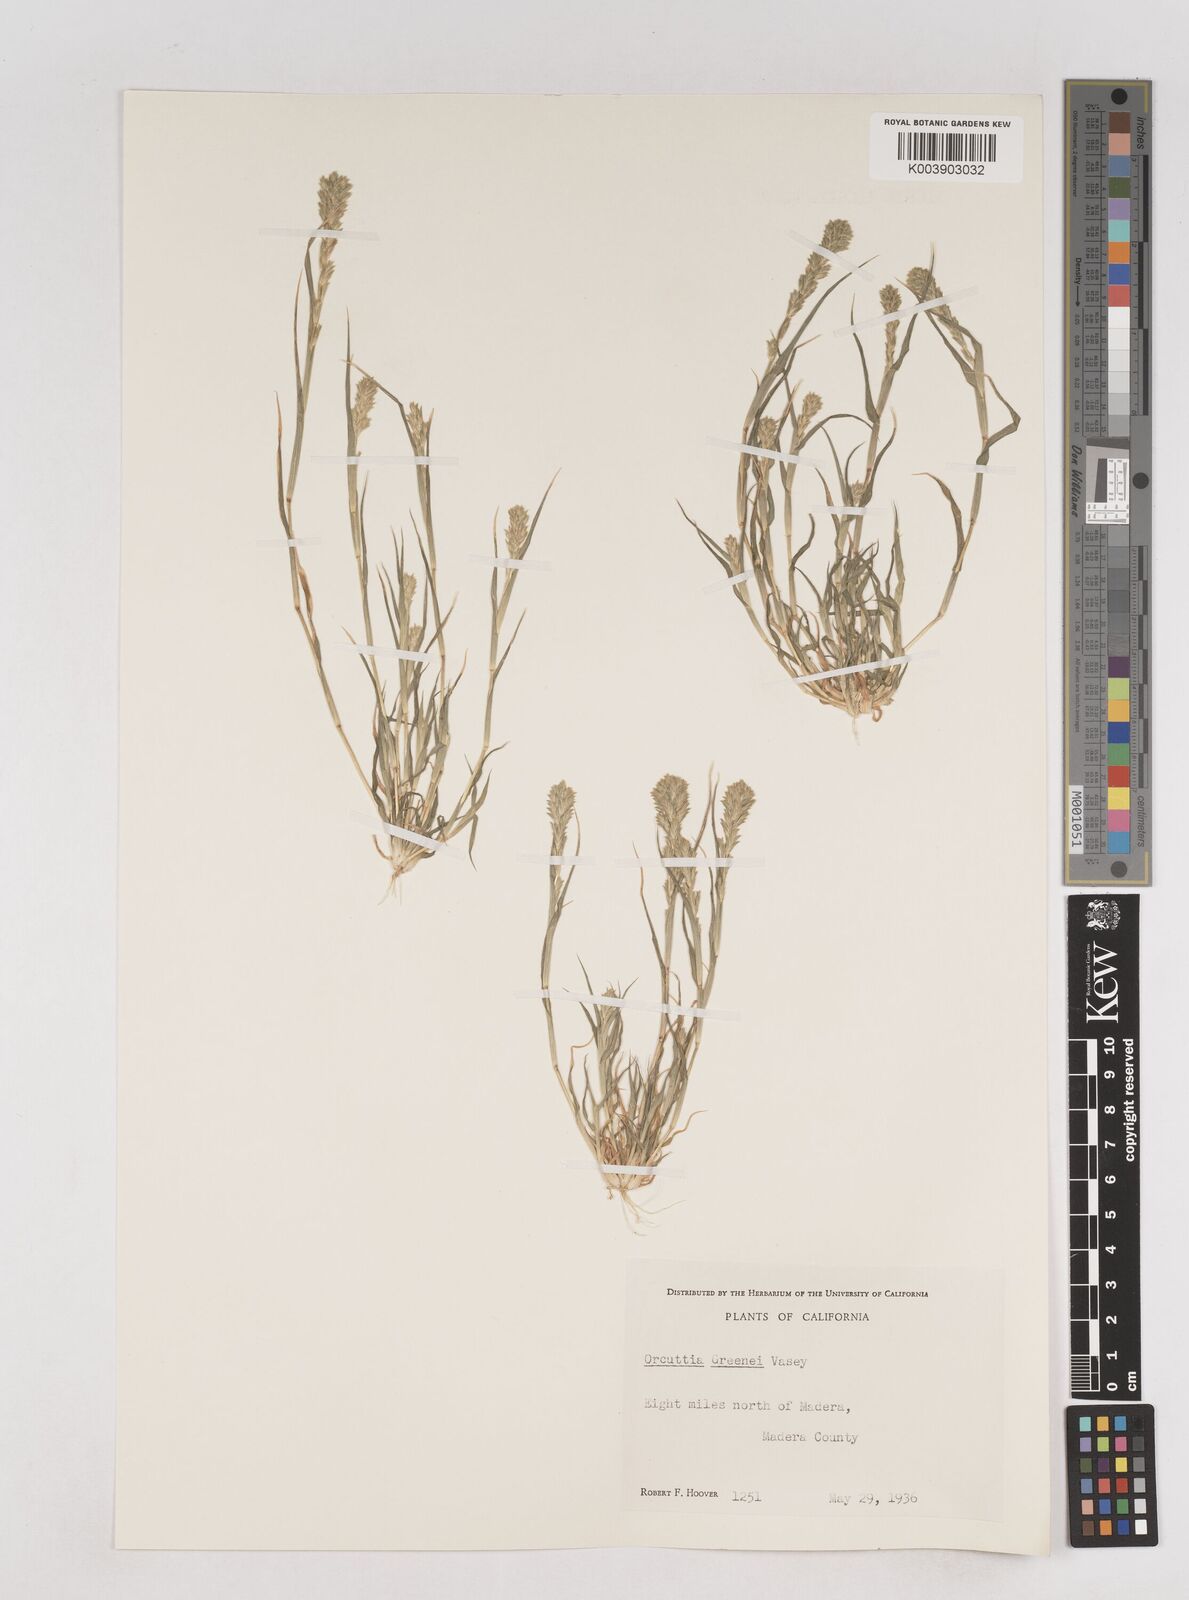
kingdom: Plantae
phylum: Tracheophyta
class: Liliopsida
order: Poales
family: Poaceae
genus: Tuctoria
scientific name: Tuctoria greenei
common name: Awnless spiral grass
